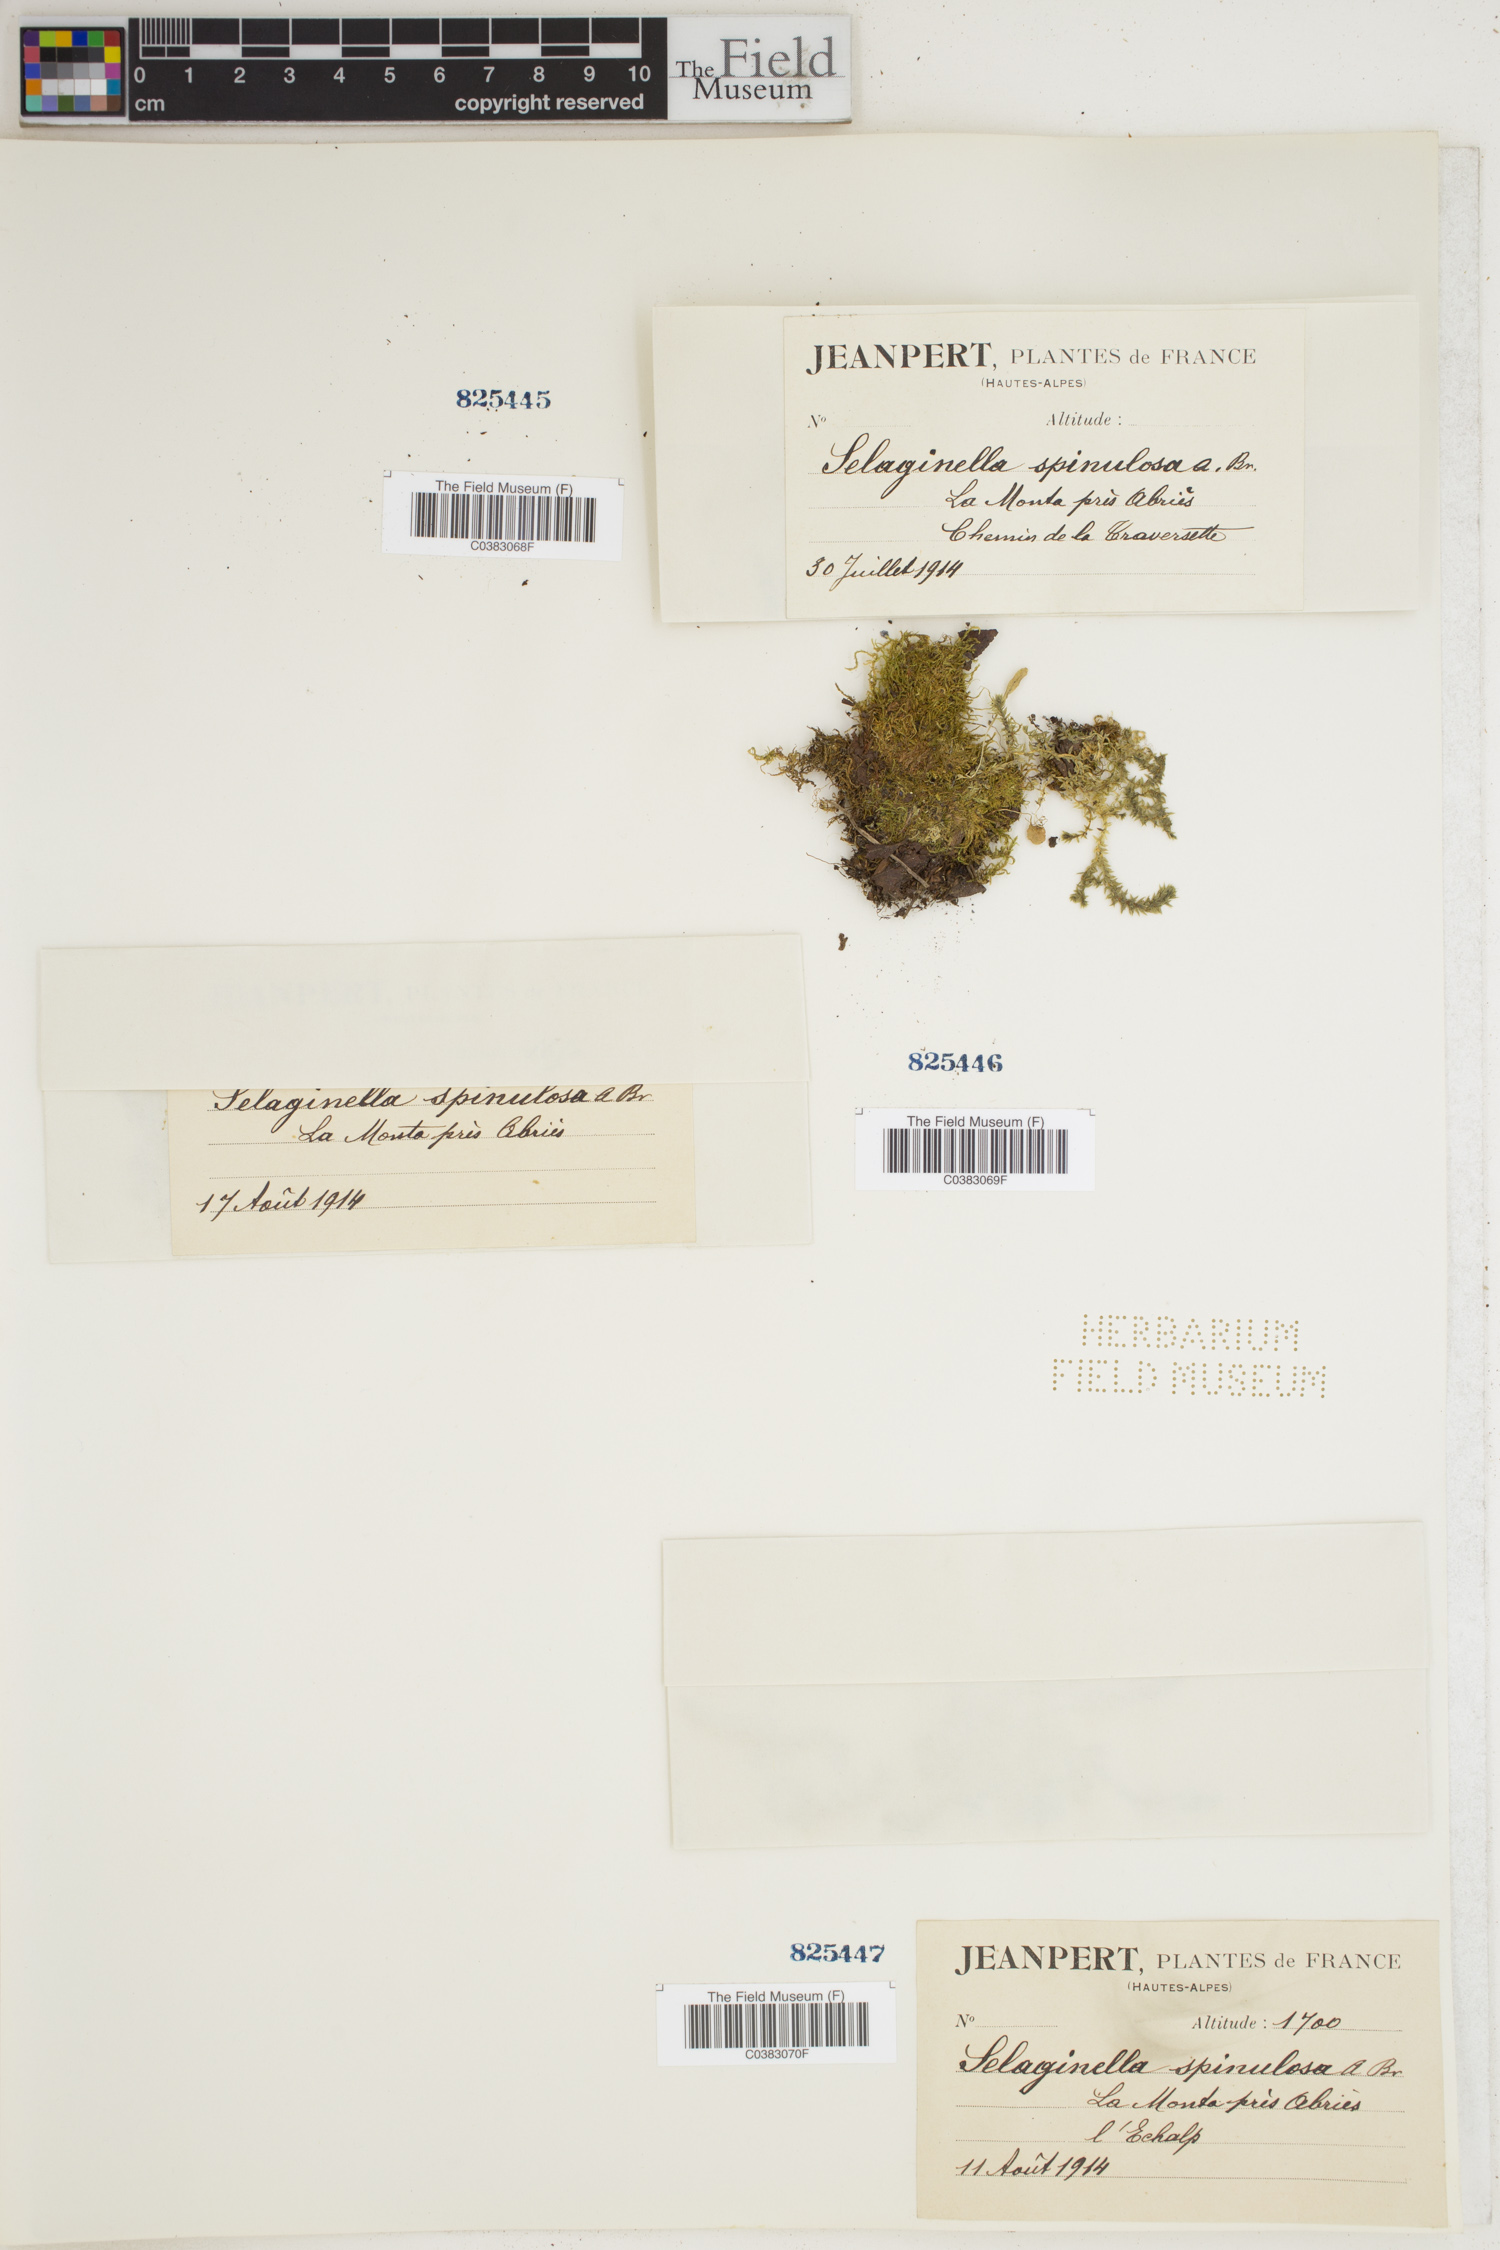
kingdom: Plantae
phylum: Tracheophyta
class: Lycopodiopsida
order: Selaginellales
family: Selaginellaceae
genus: Selaginella
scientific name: Selaginella selaginoides
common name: Prickly mountain-moss
